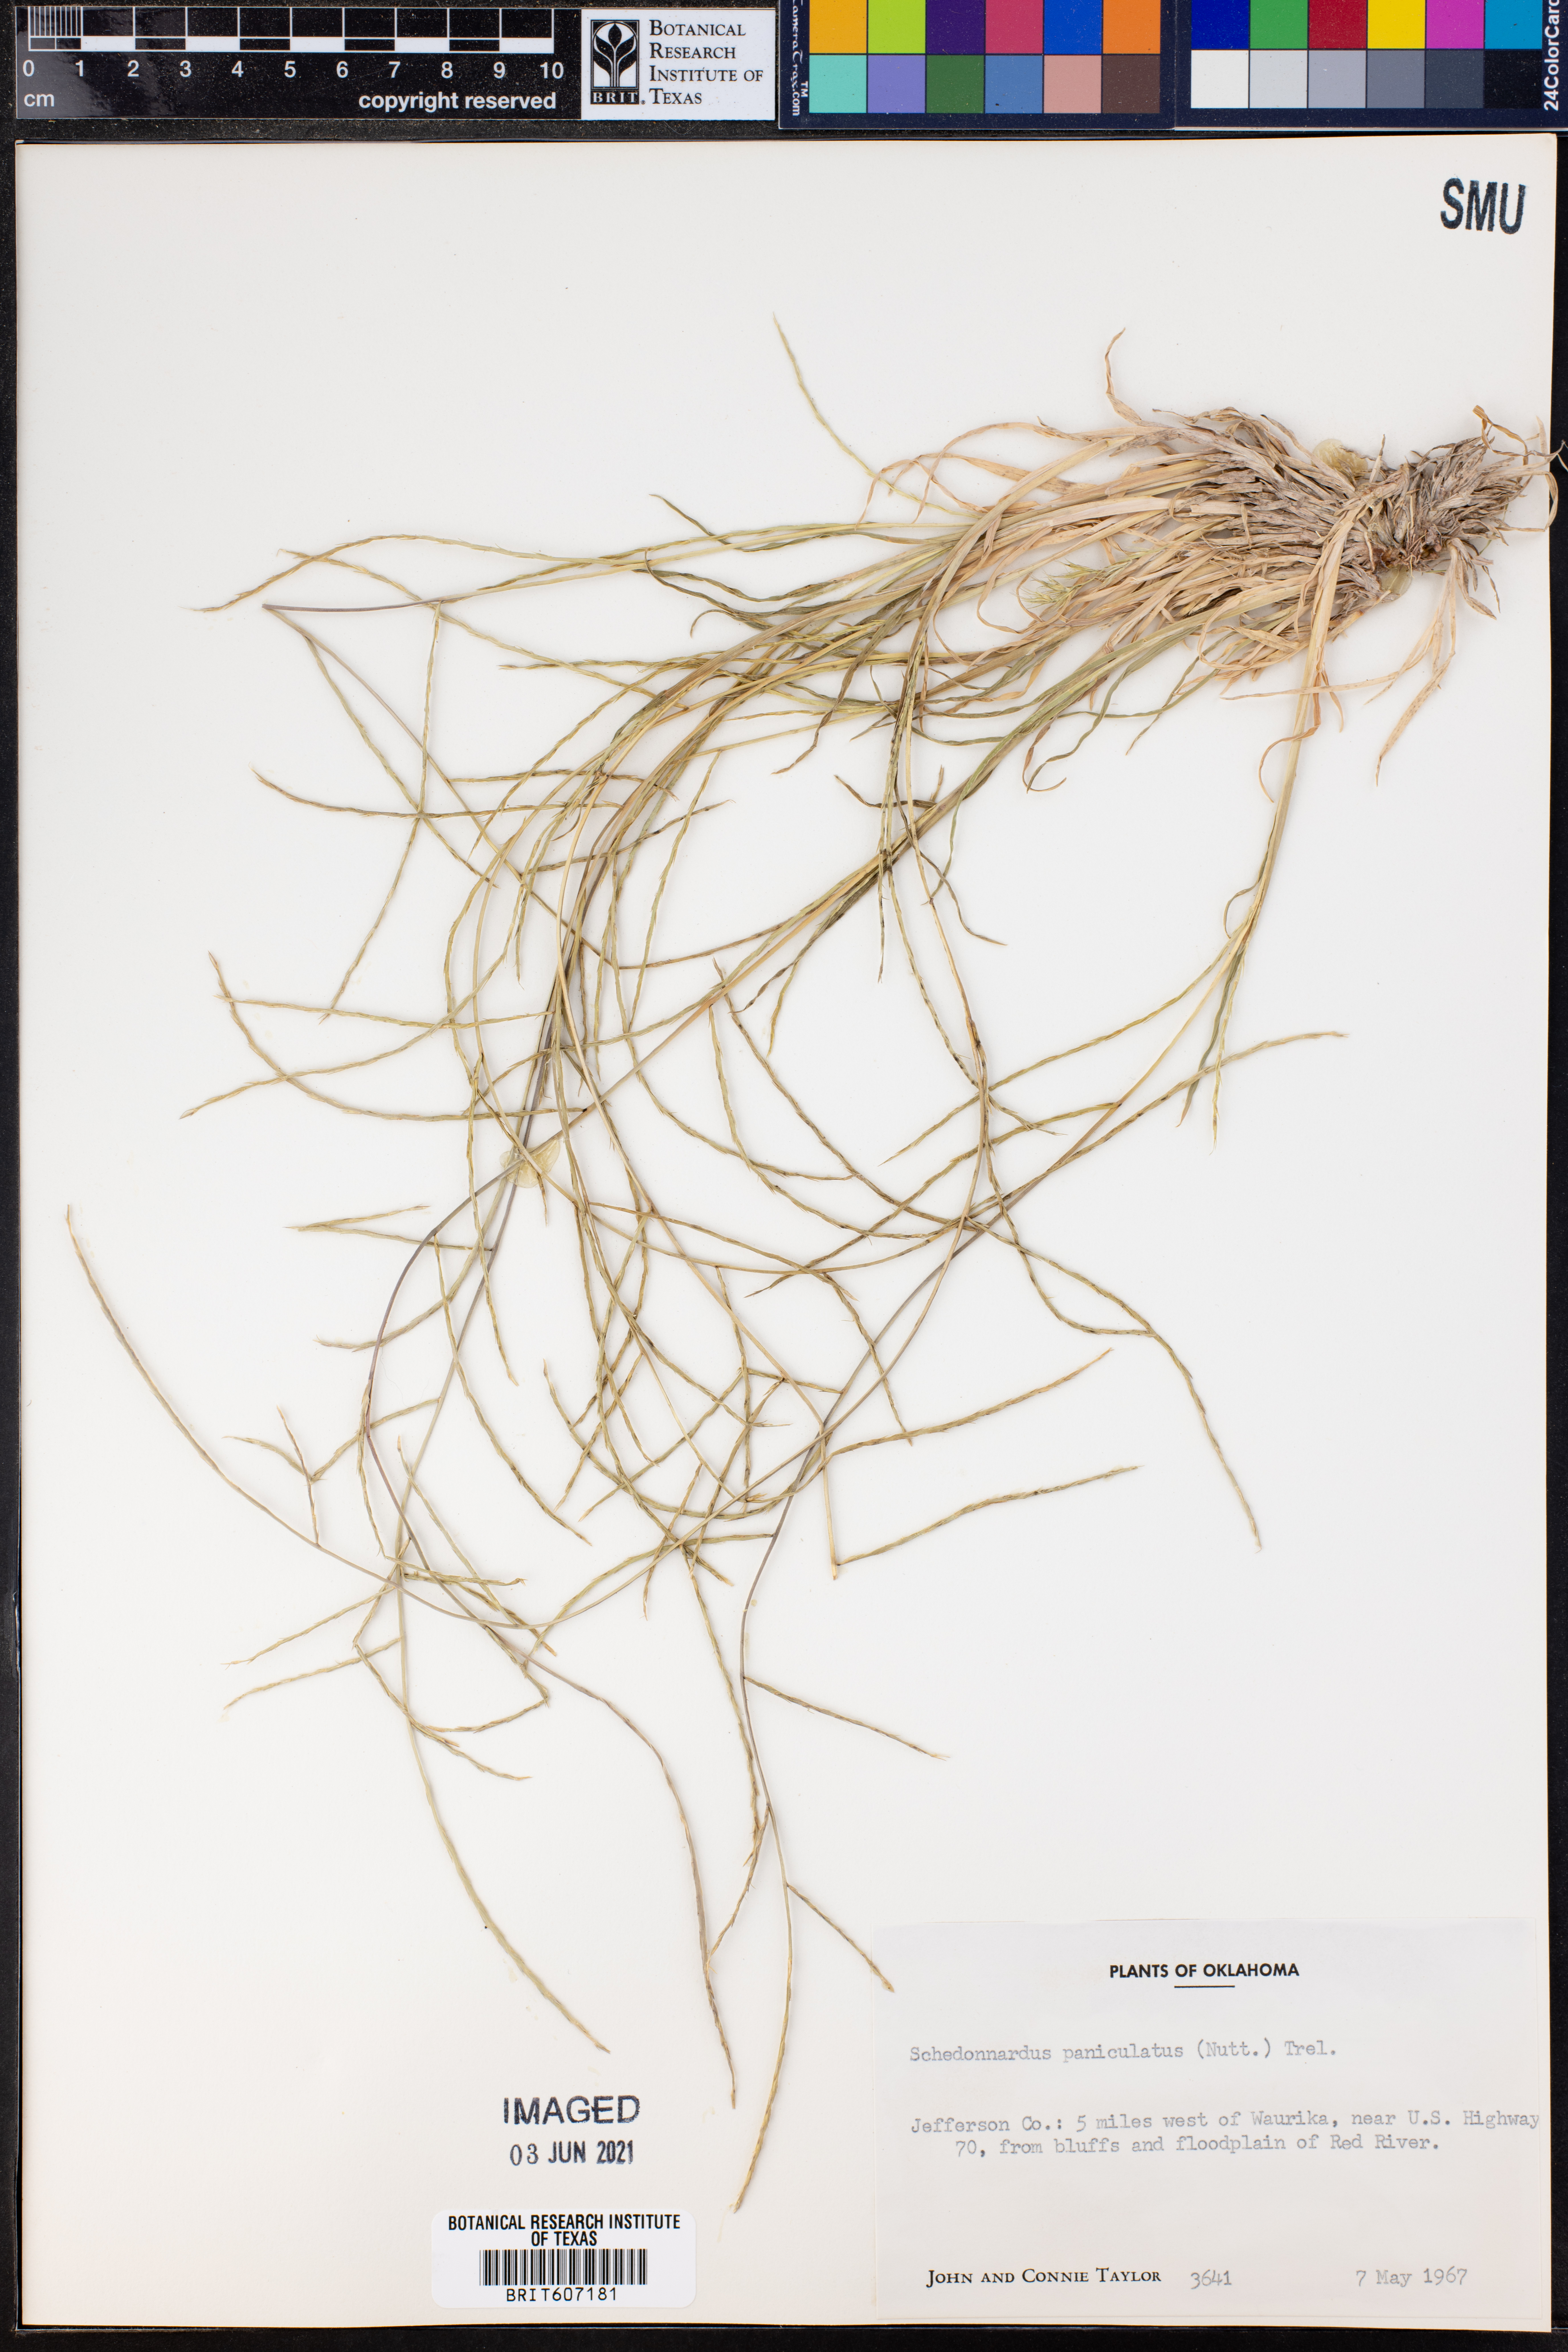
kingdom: Plantae
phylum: Tracheophyta
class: Liliopsida
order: Poales
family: Poaceae
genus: Muhlenbergia
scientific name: Muhlenbergia paniculata
